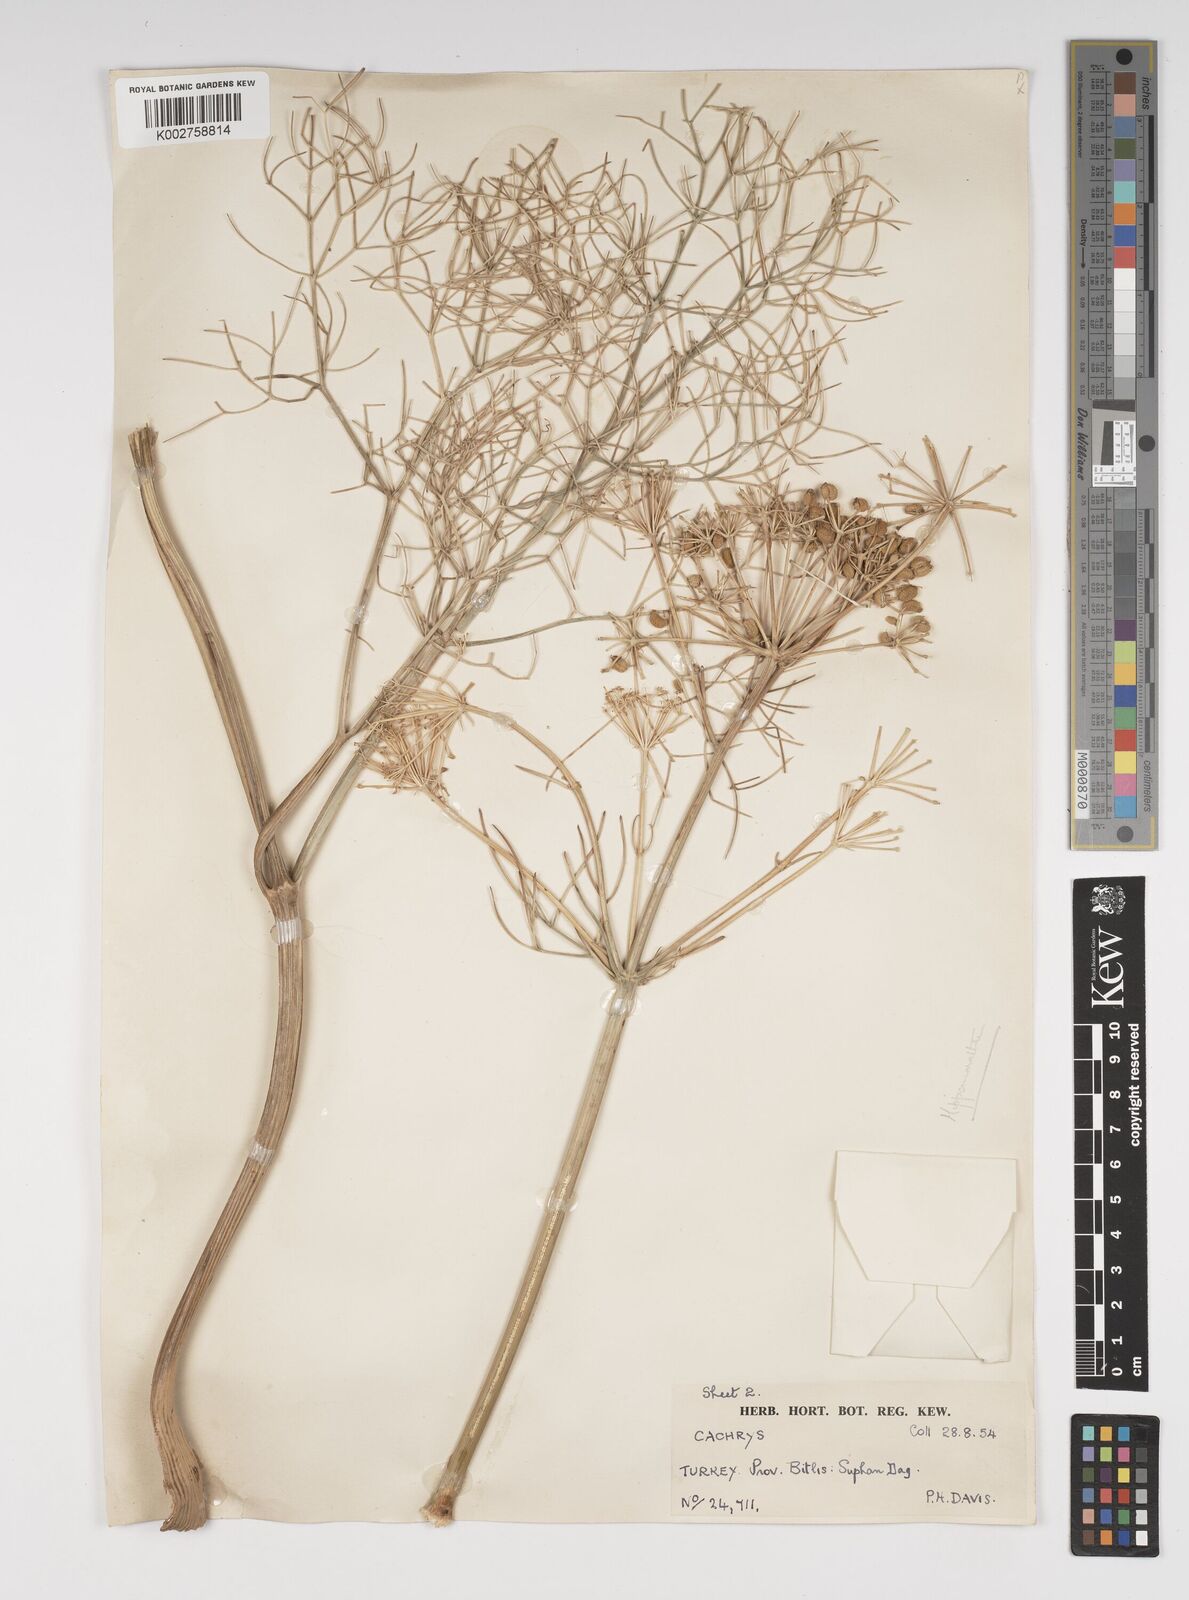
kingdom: Plantae
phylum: Tracheophyta
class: Magnoliopsida
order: Apiales
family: Apiaceae
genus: Bilacunaria
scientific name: Bilacunaria microcarpa
